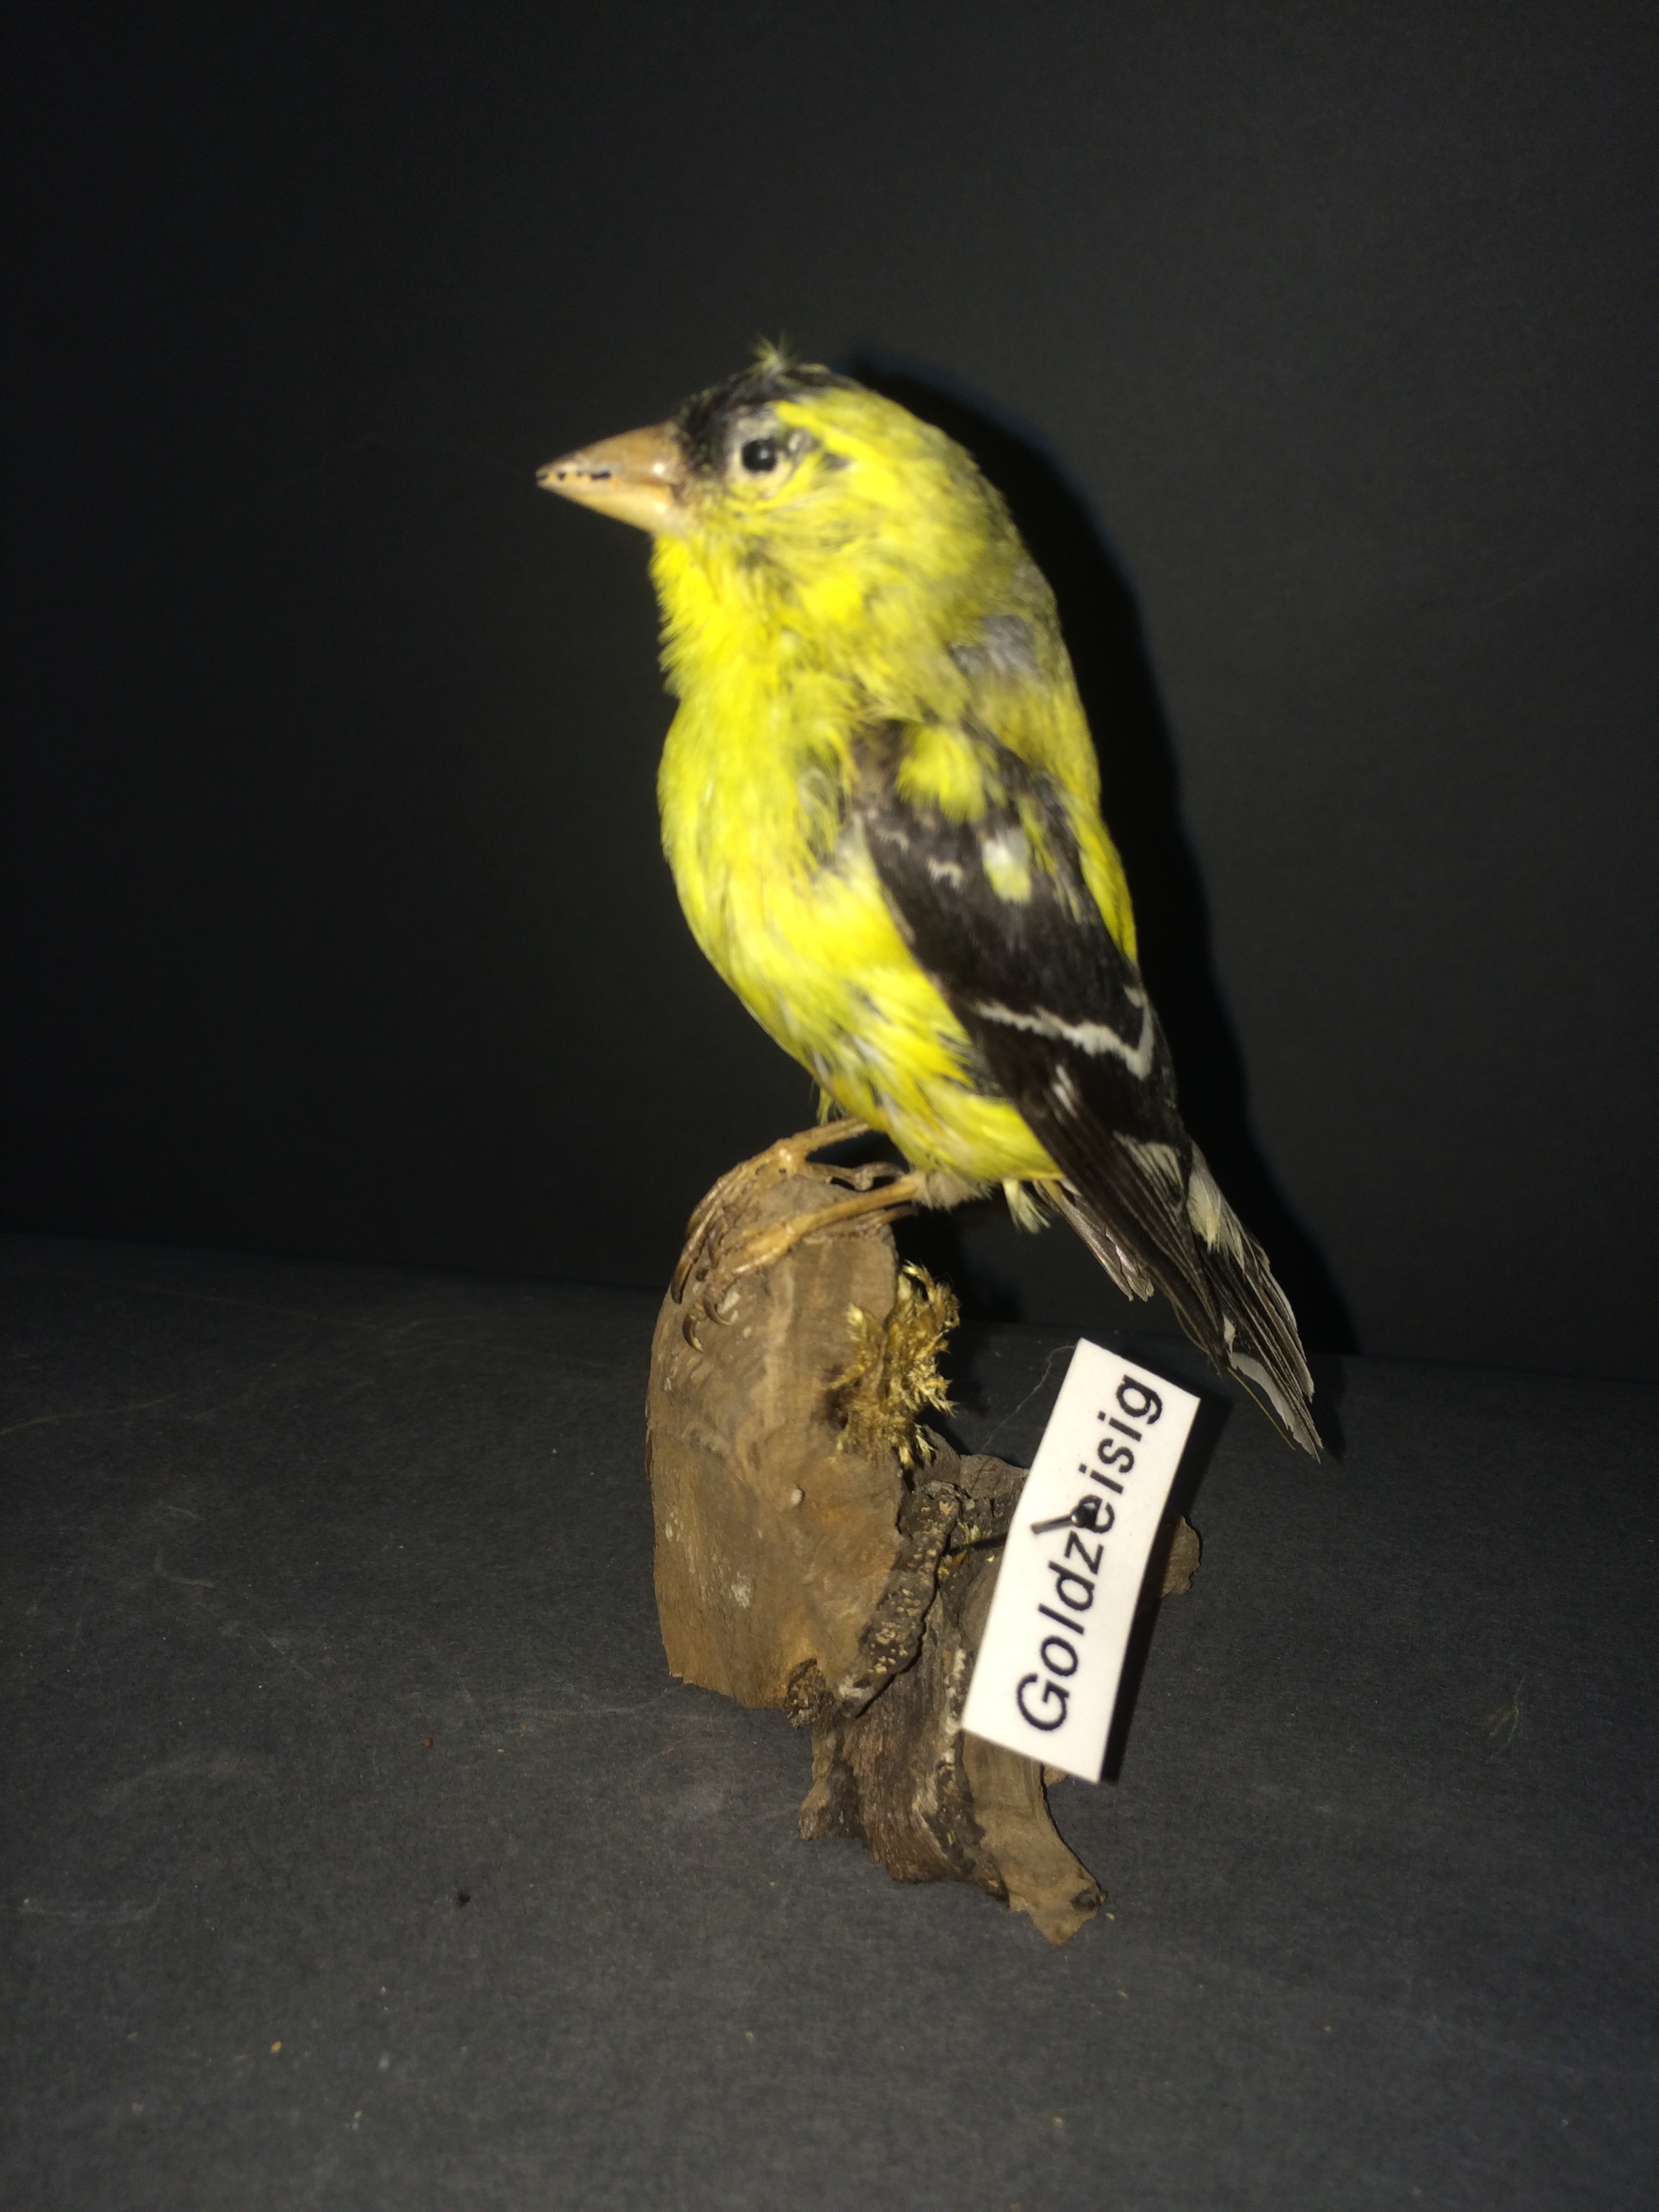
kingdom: Animalia
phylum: Chordata
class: Aves
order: Passeriformes
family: Fringillidae
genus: Spinus
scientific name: Spinus tristis
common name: American goldfinch
